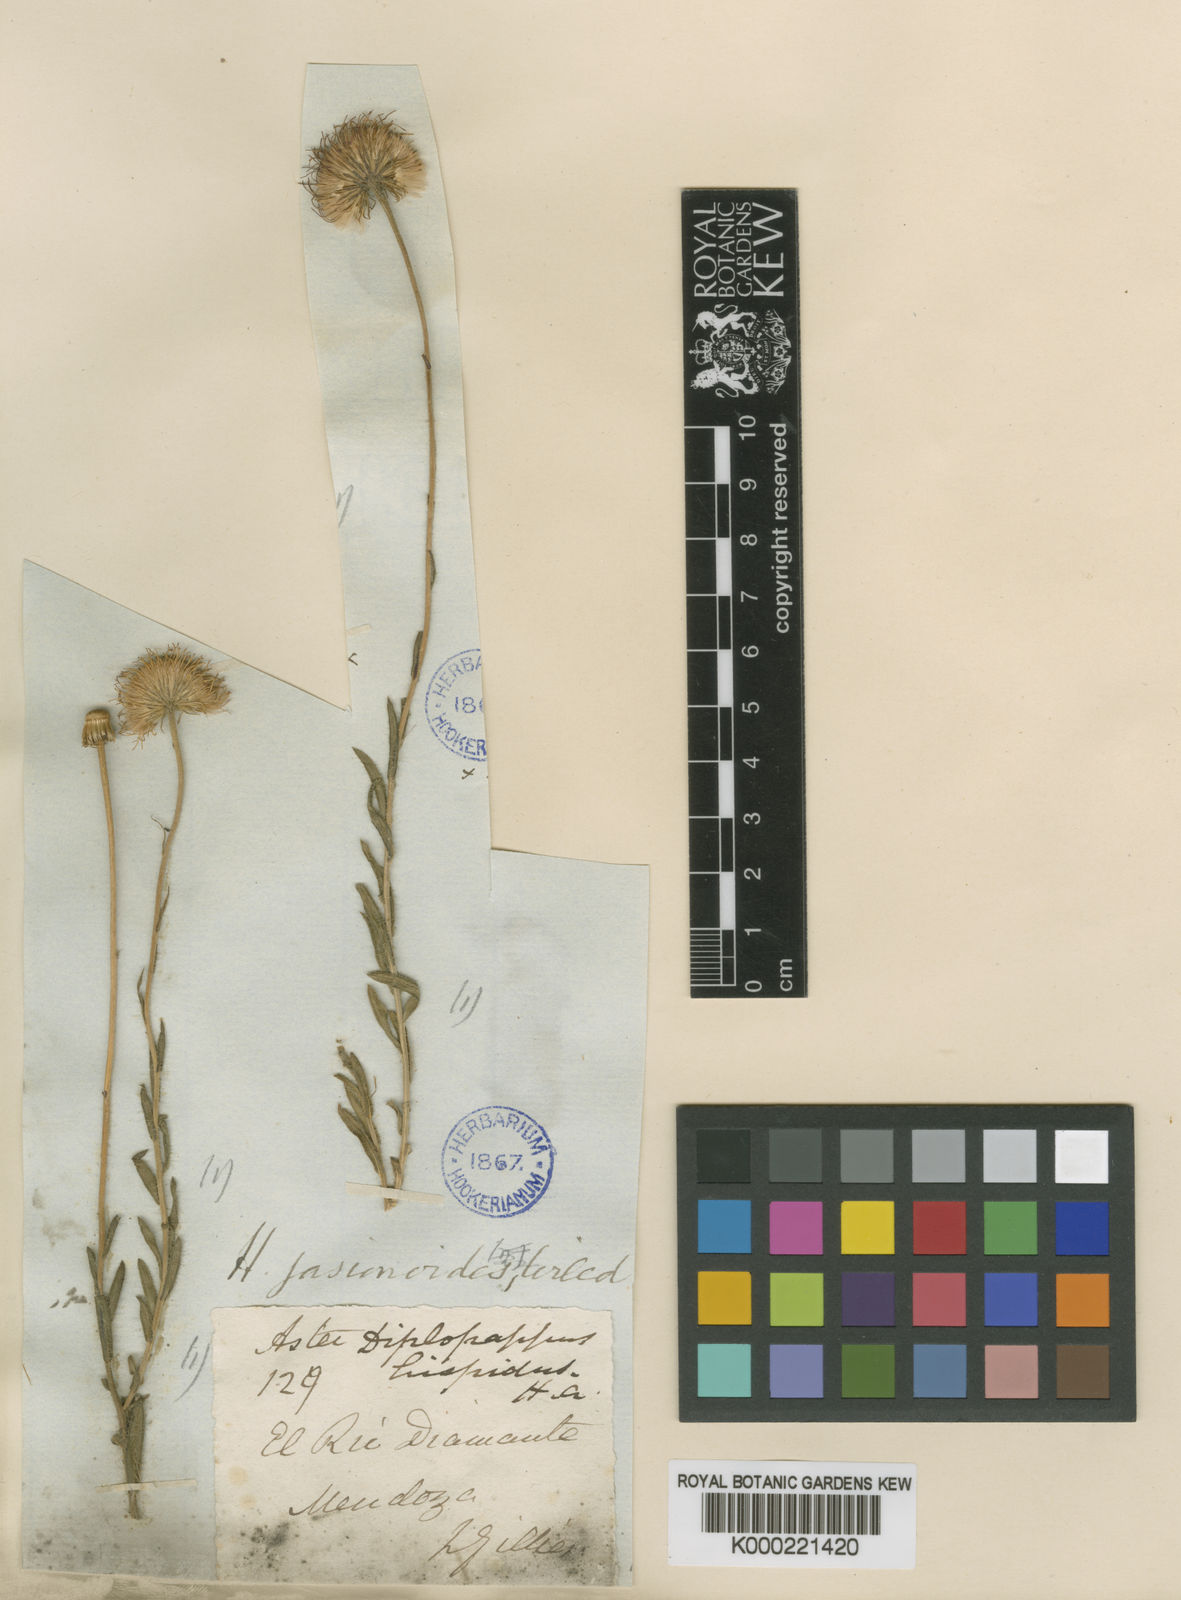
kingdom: Plantae
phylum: Tracheophyta
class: Magnoliopsida
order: Asterales
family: Asteraceae
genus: Hysterionica
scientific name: Hysterionica jasionoides
